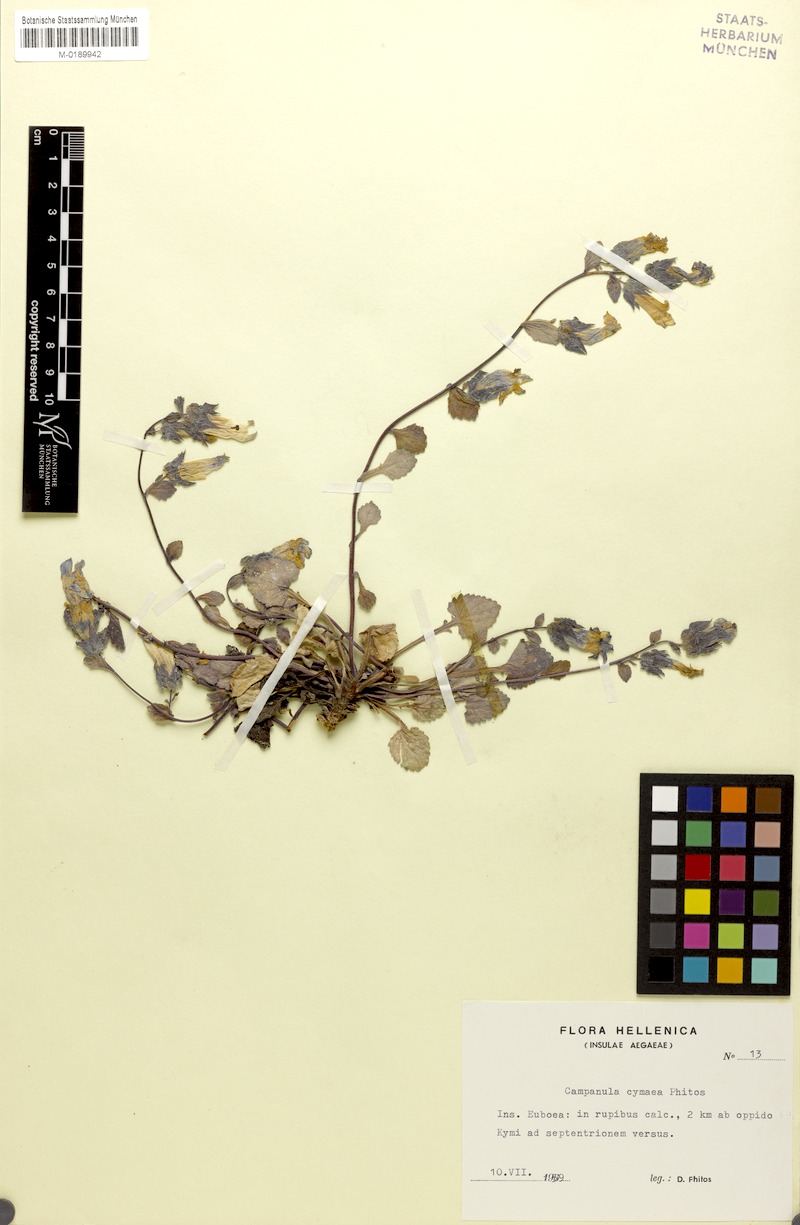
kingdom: Plantae
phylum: Tracheophyta
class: Magnoliopsida
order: Asterales
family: Campanulaceae
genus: Campanula
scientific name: Campanula cymaea
